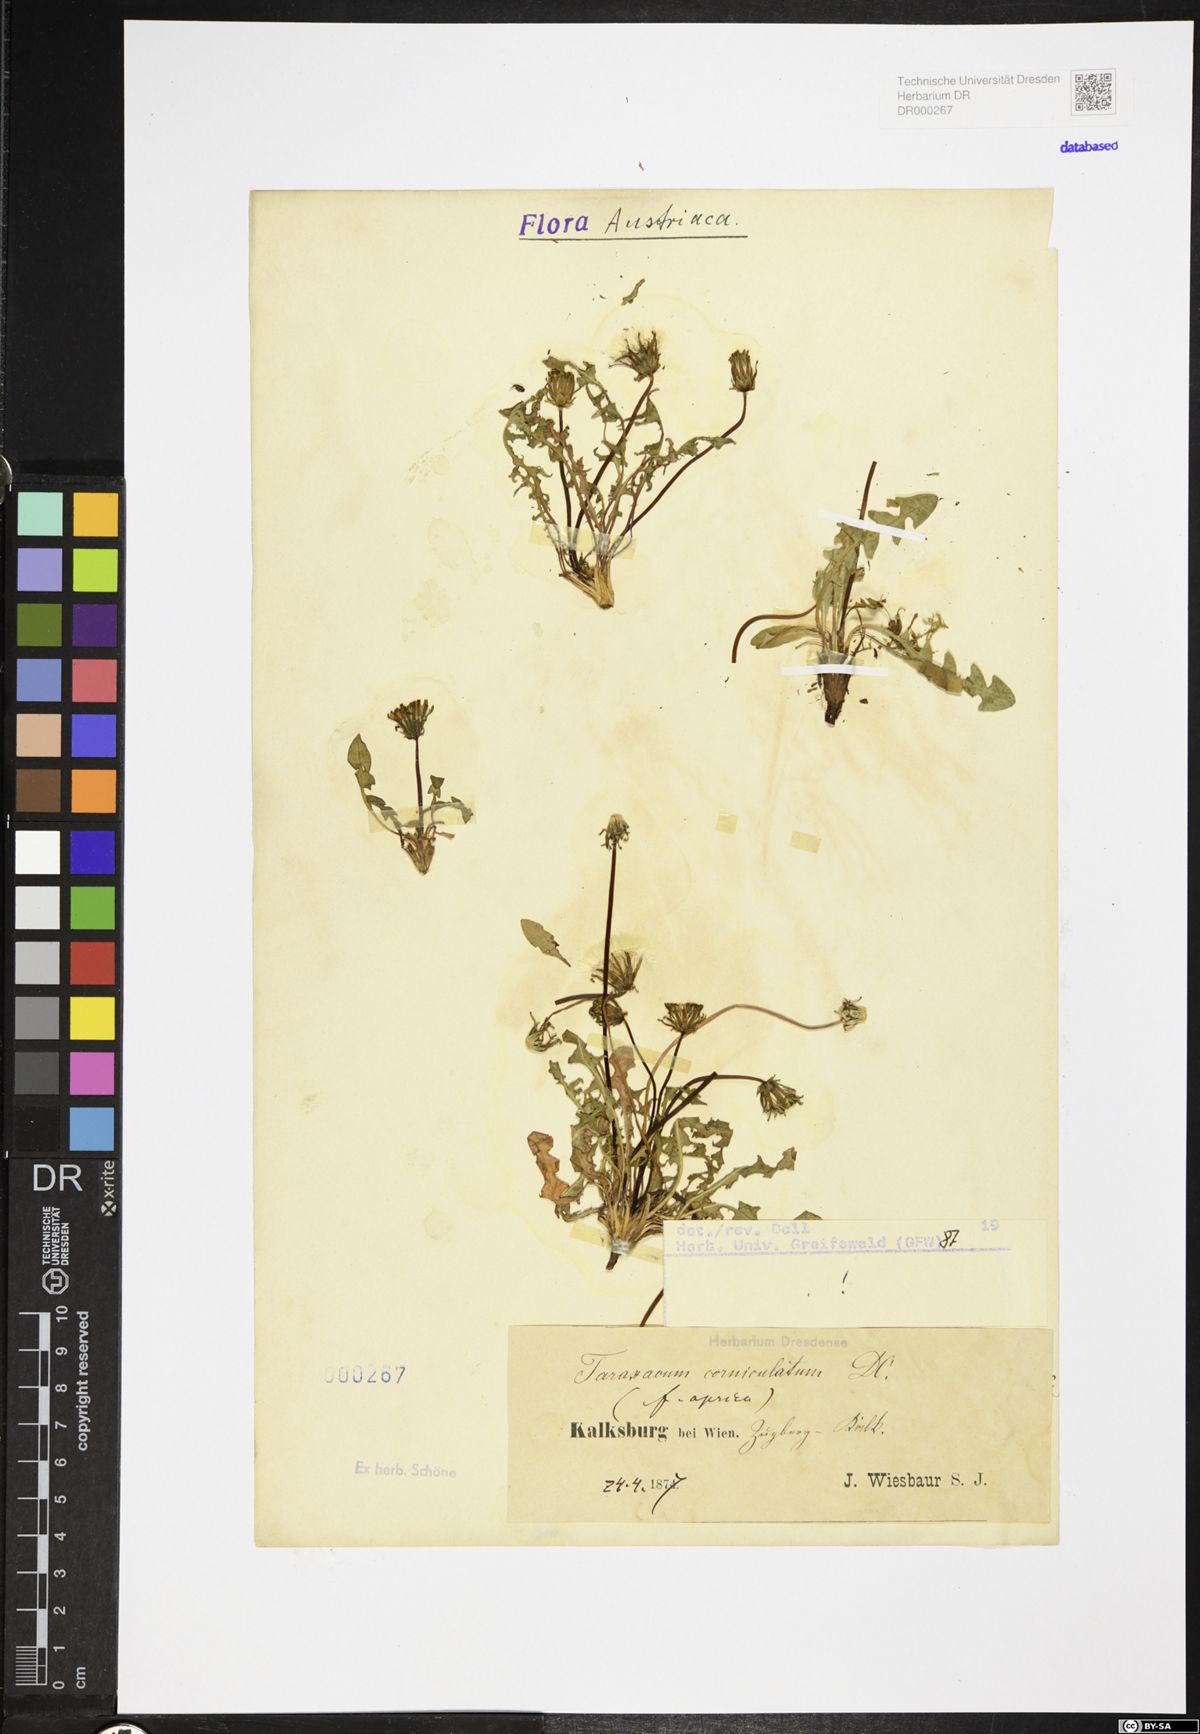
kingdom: Plantae
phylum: Tracheophyta
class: Magnoliopsida
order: Asterales
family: Asteraceae
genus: Taraxacum
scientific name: Taraxacum corniculatum
